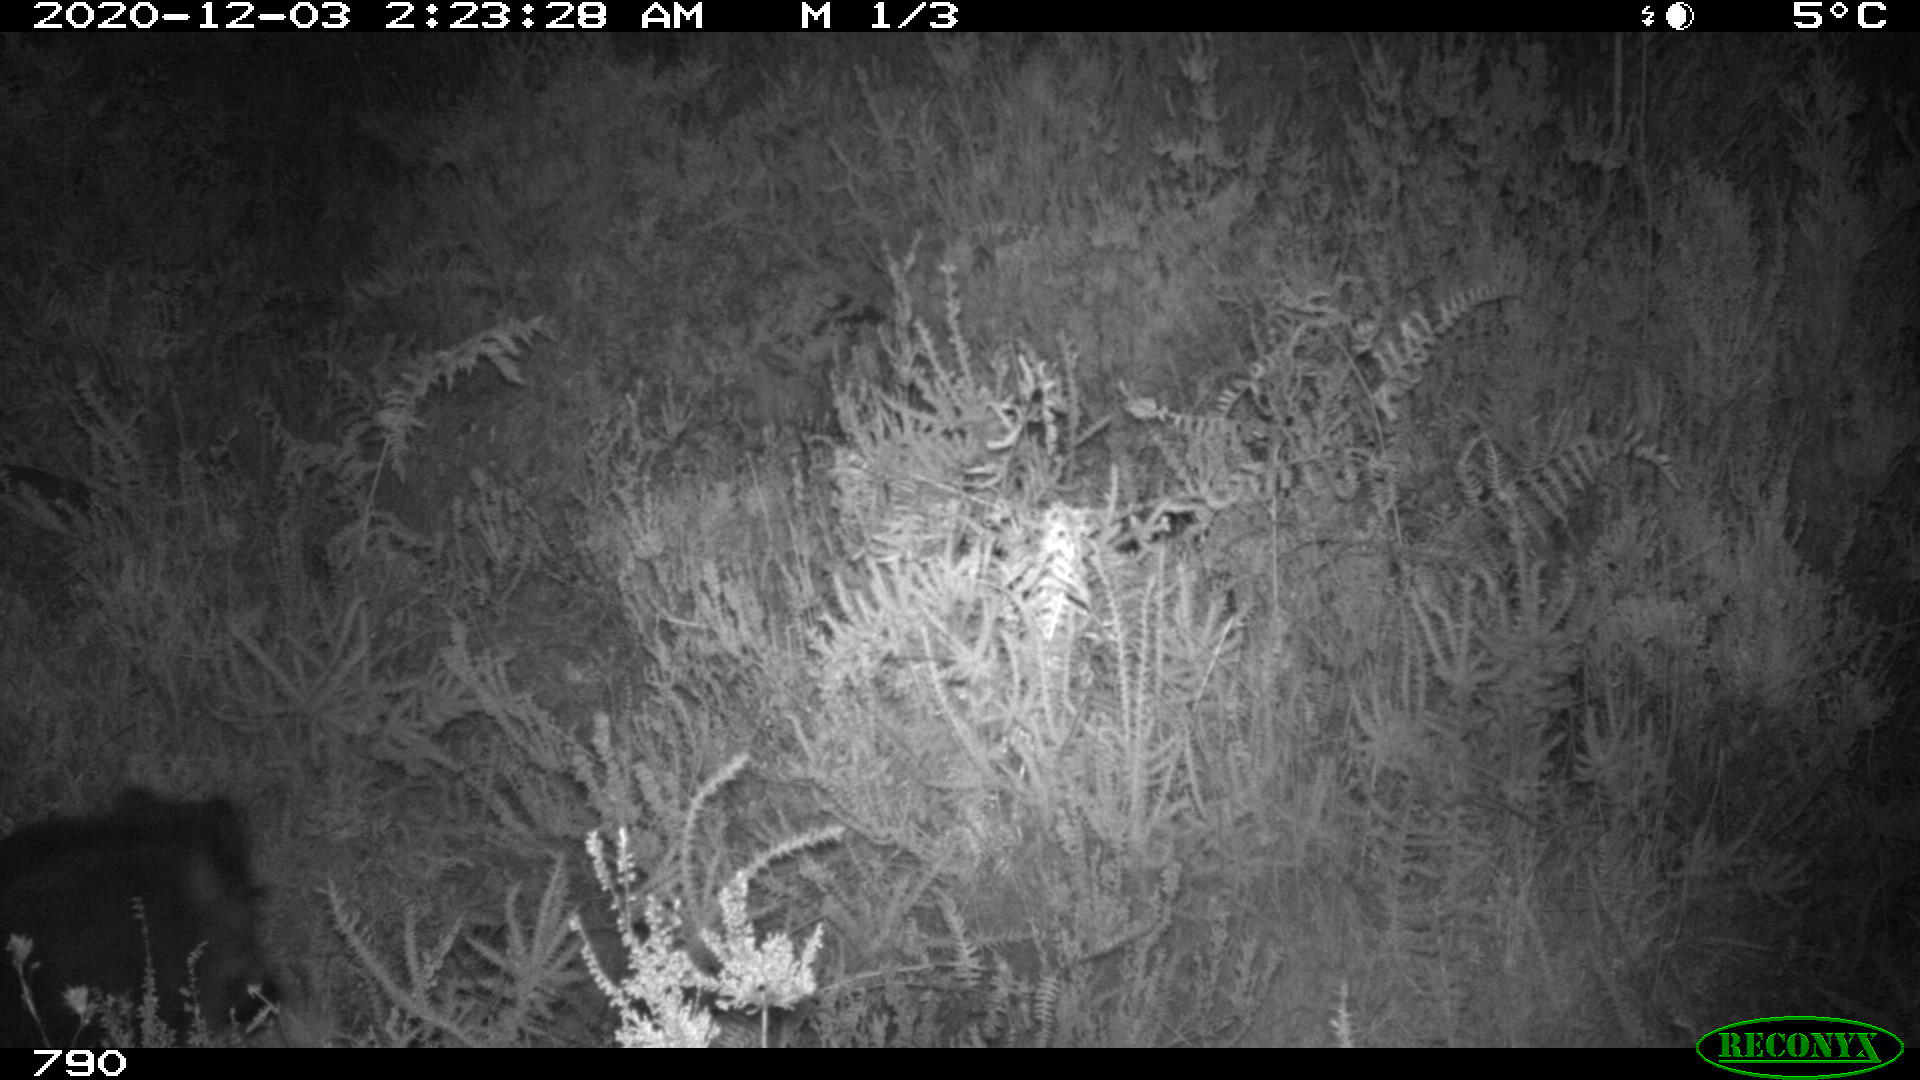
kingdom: Animalia
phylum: Chordata
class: Mammalia
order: Artiodactyla
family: Suidae
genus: Sus
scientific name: Sus scrofa
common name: Wild boar
